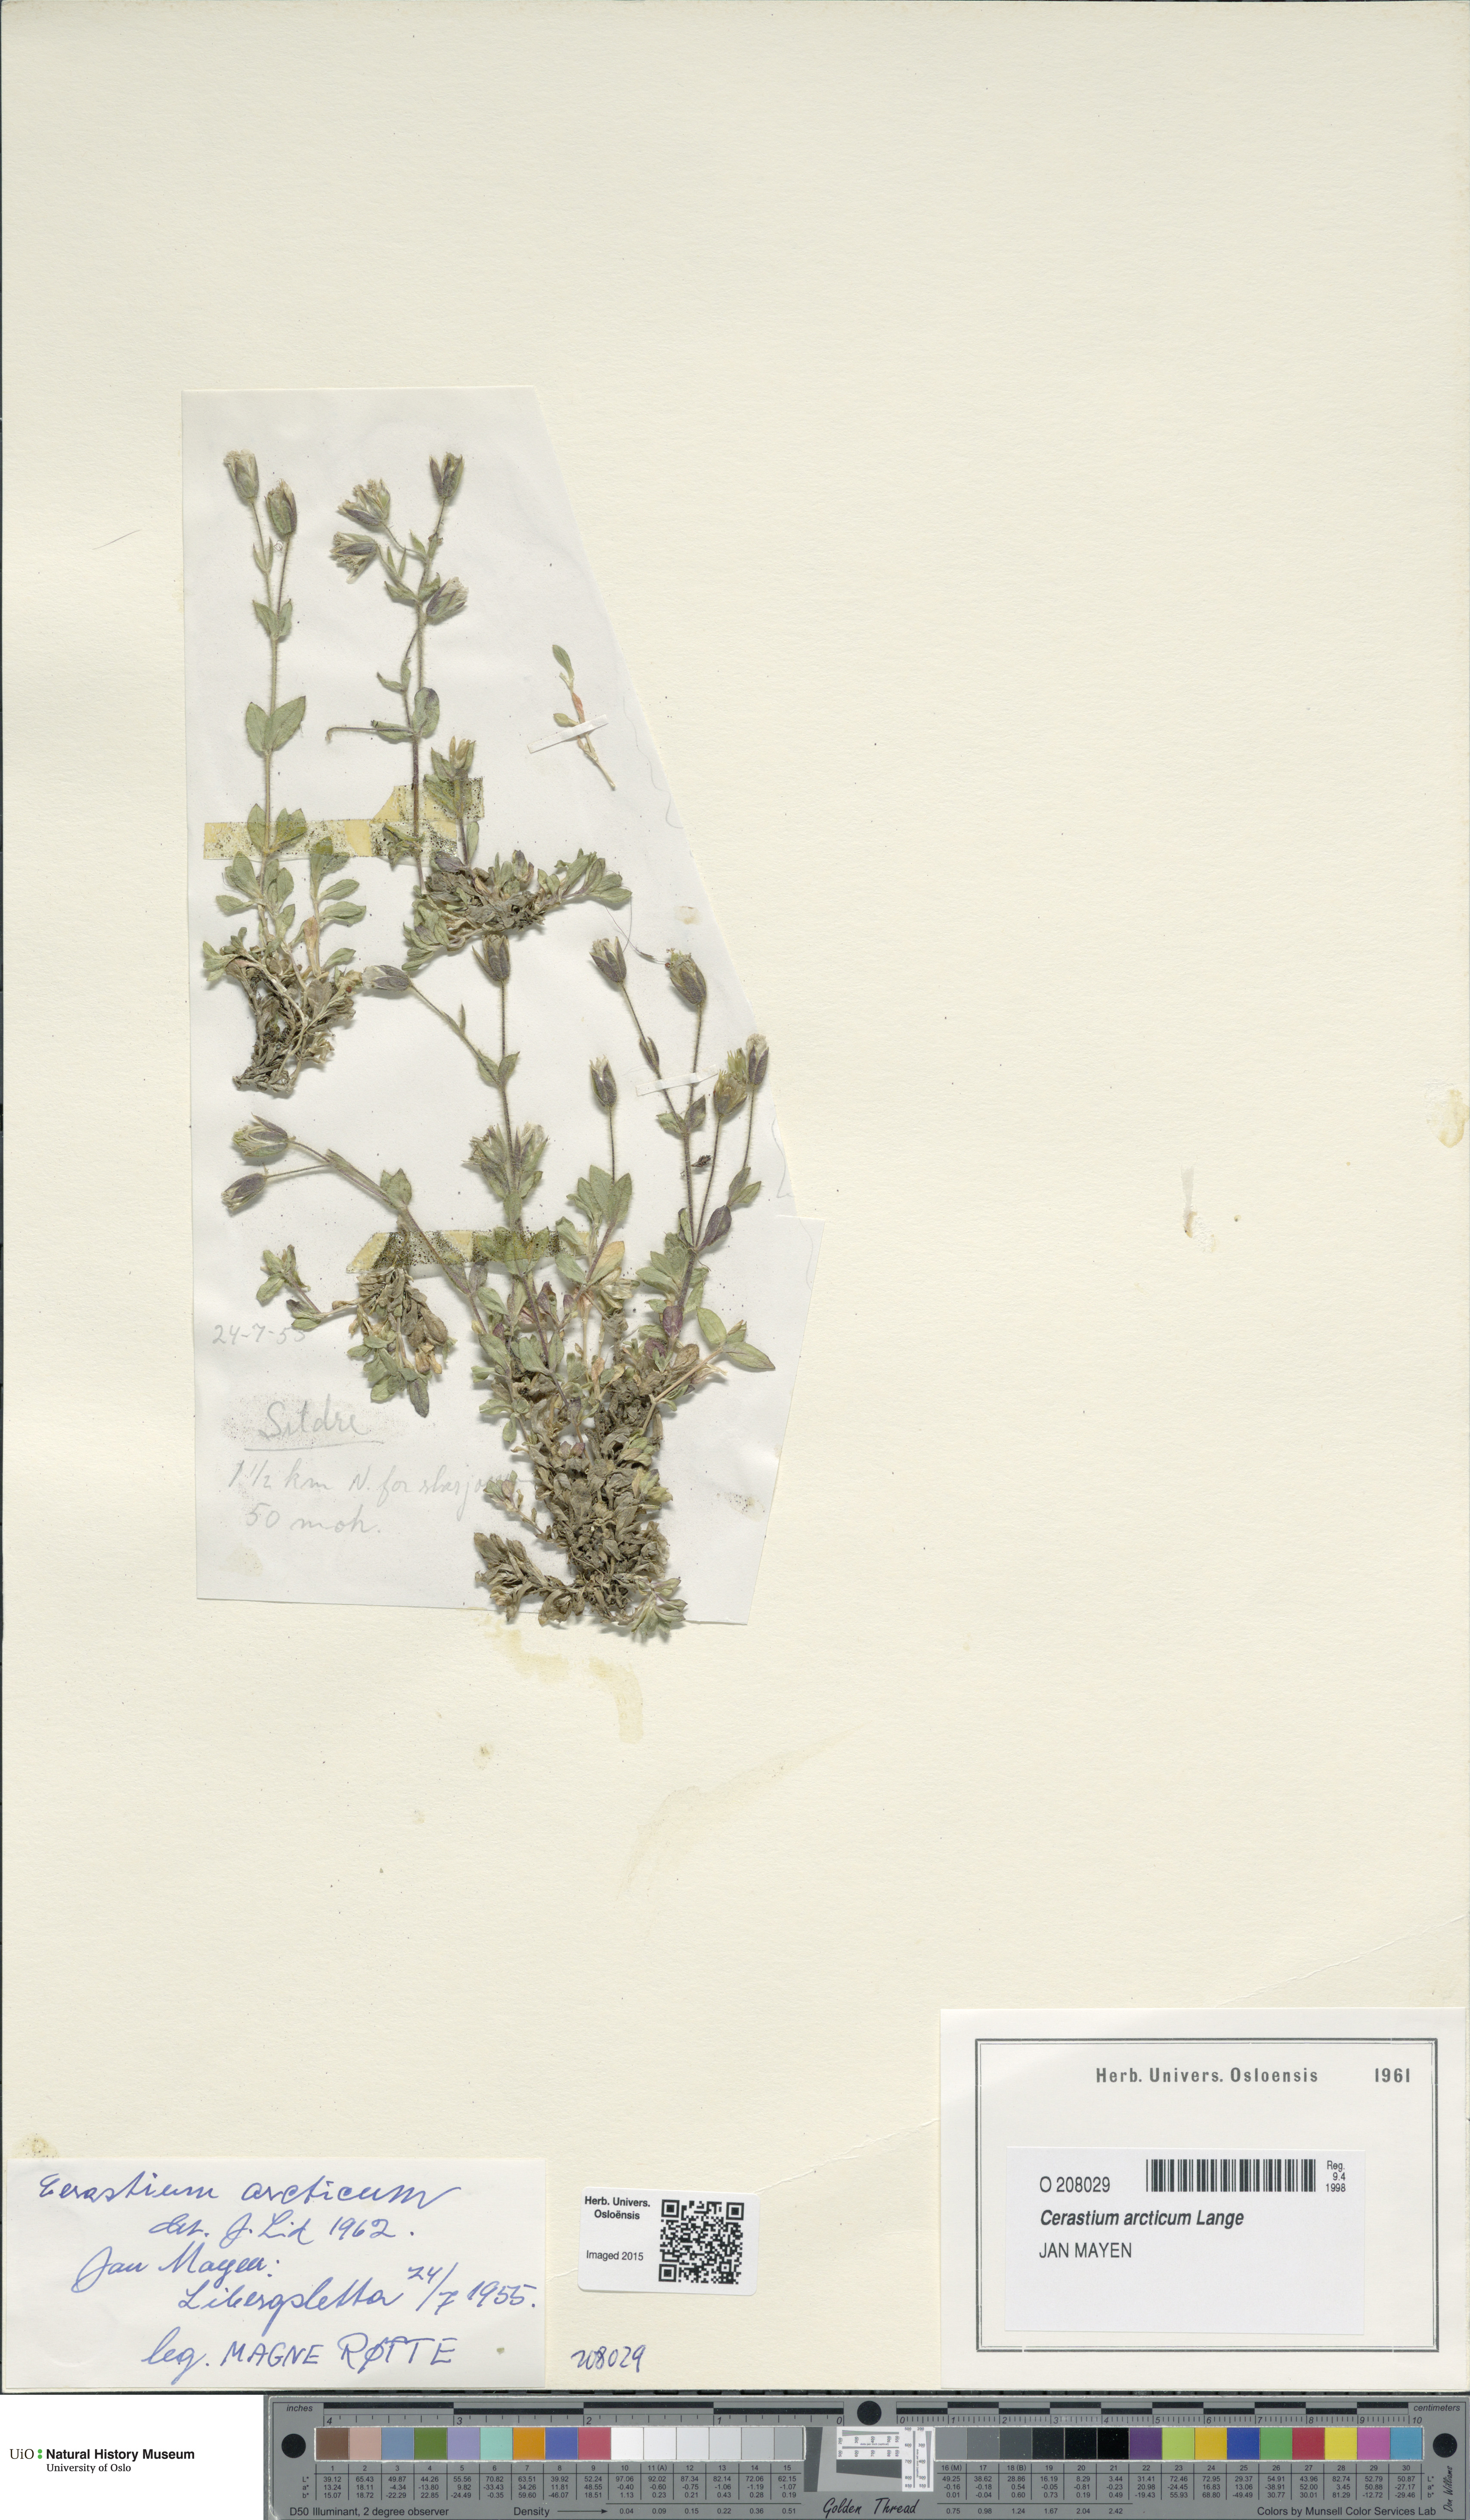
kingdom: Plantae
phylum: Tracheophyta
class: Magnoliopsida
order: Caryophyllales
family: Caryophyllaceae
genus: Cerastium
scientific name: Cerastium arcticum
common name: Arctic mouse-ear
